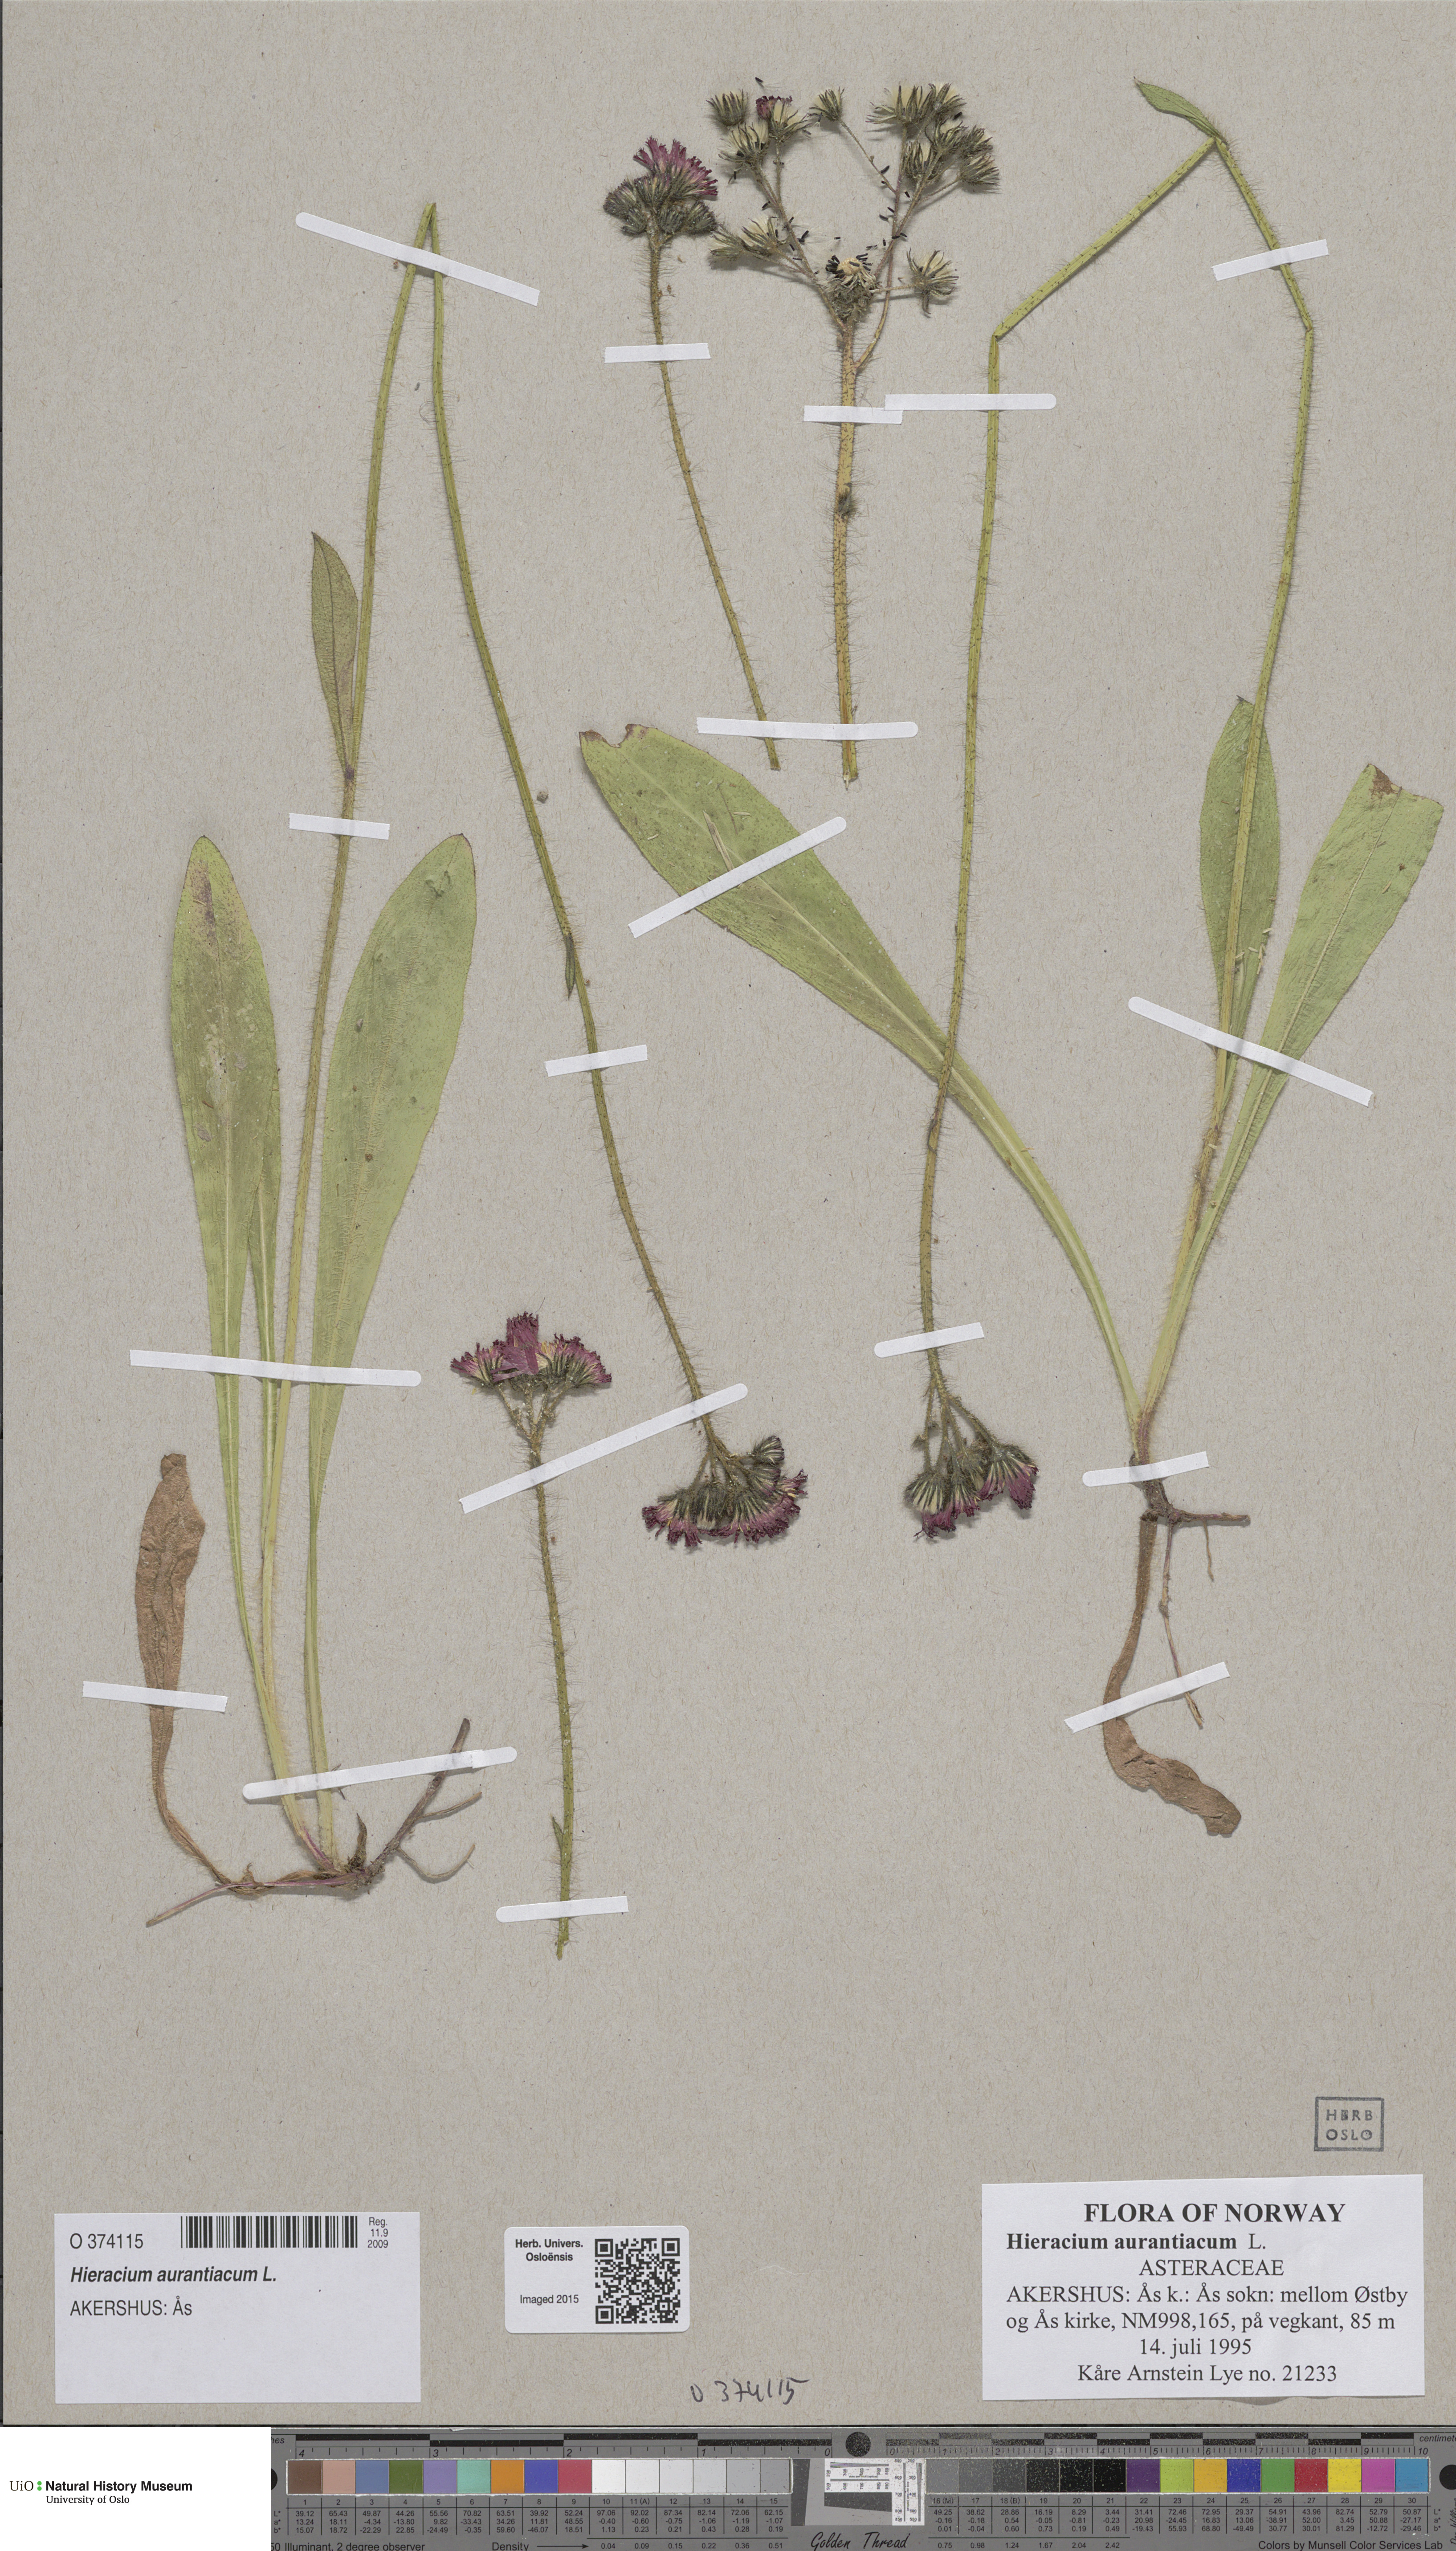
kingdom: Plantae
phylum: Tracheophyta
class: Magnoliopsida
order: Asterales
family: Asteraceae
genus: Pilosella
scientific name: Pilosella aurantiaca
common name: Fox-and-cubs
